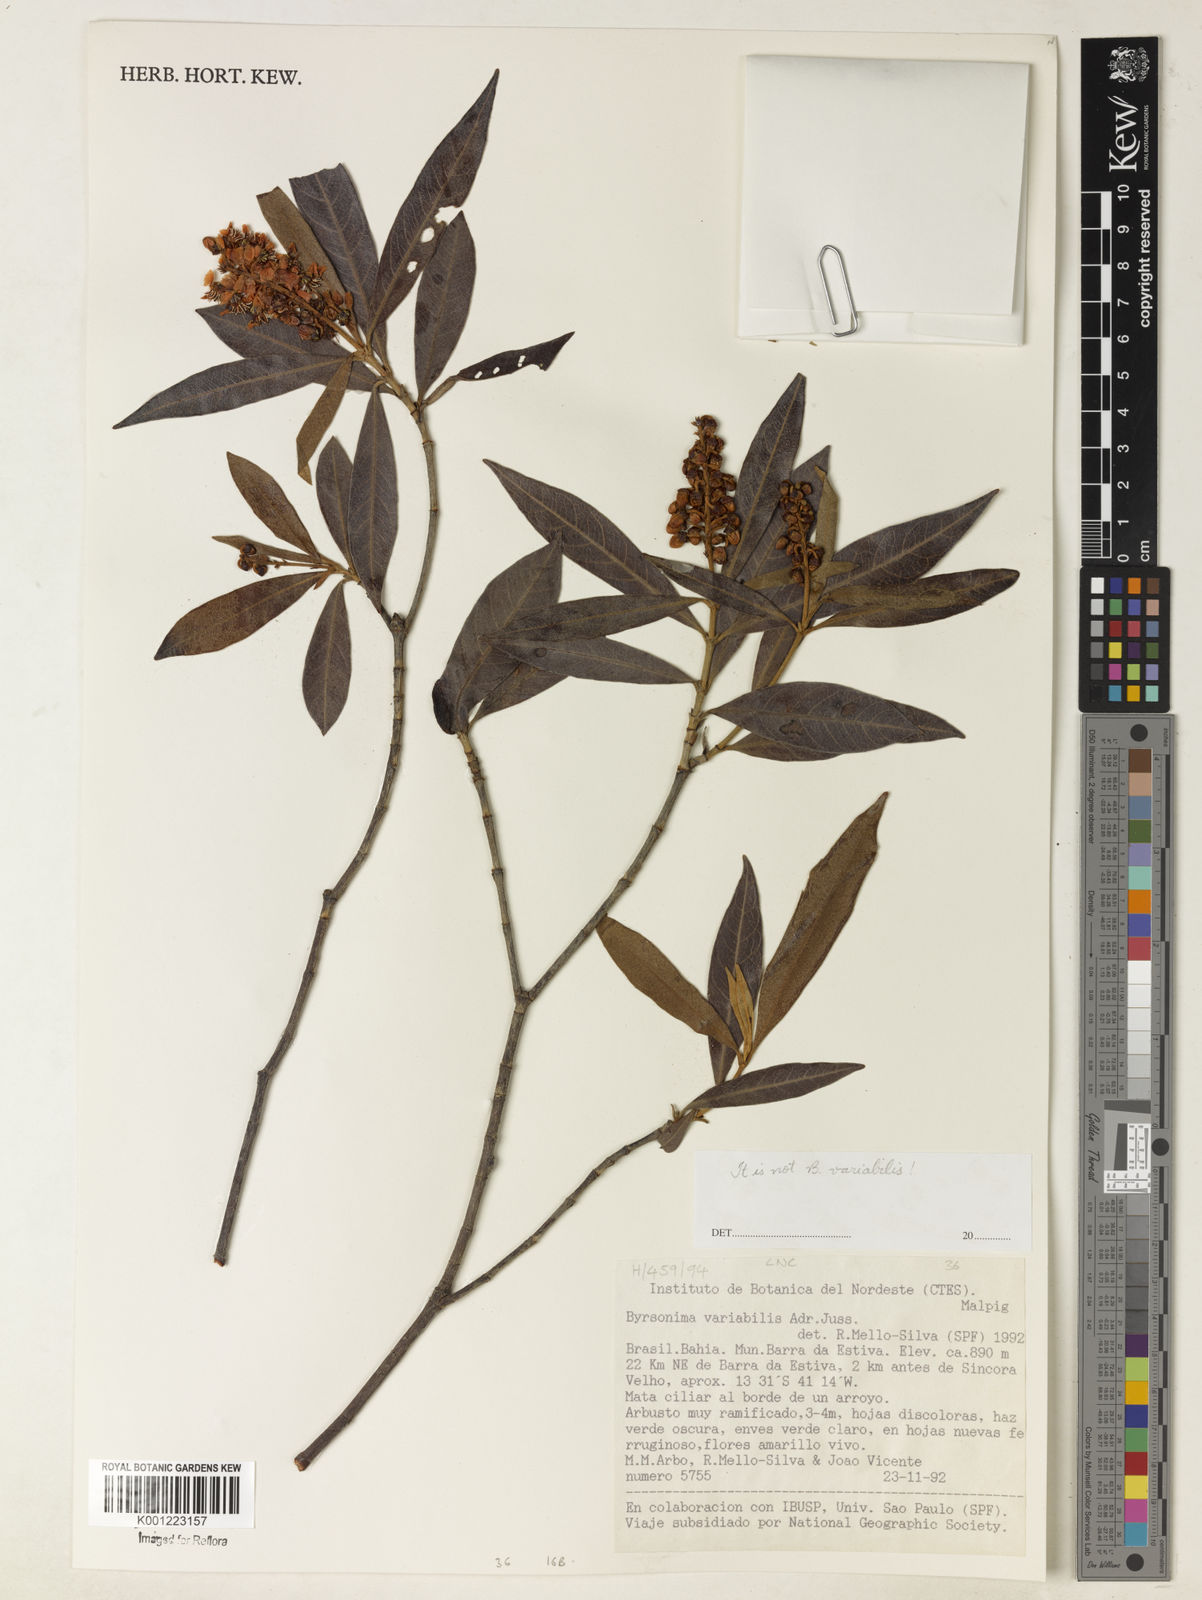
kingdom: Plantae
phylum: Tracheophyta
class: Magnoliopsida
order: Malpighiales
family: Malpighiaceae
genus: Byrsonima
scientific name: Byrsonima
